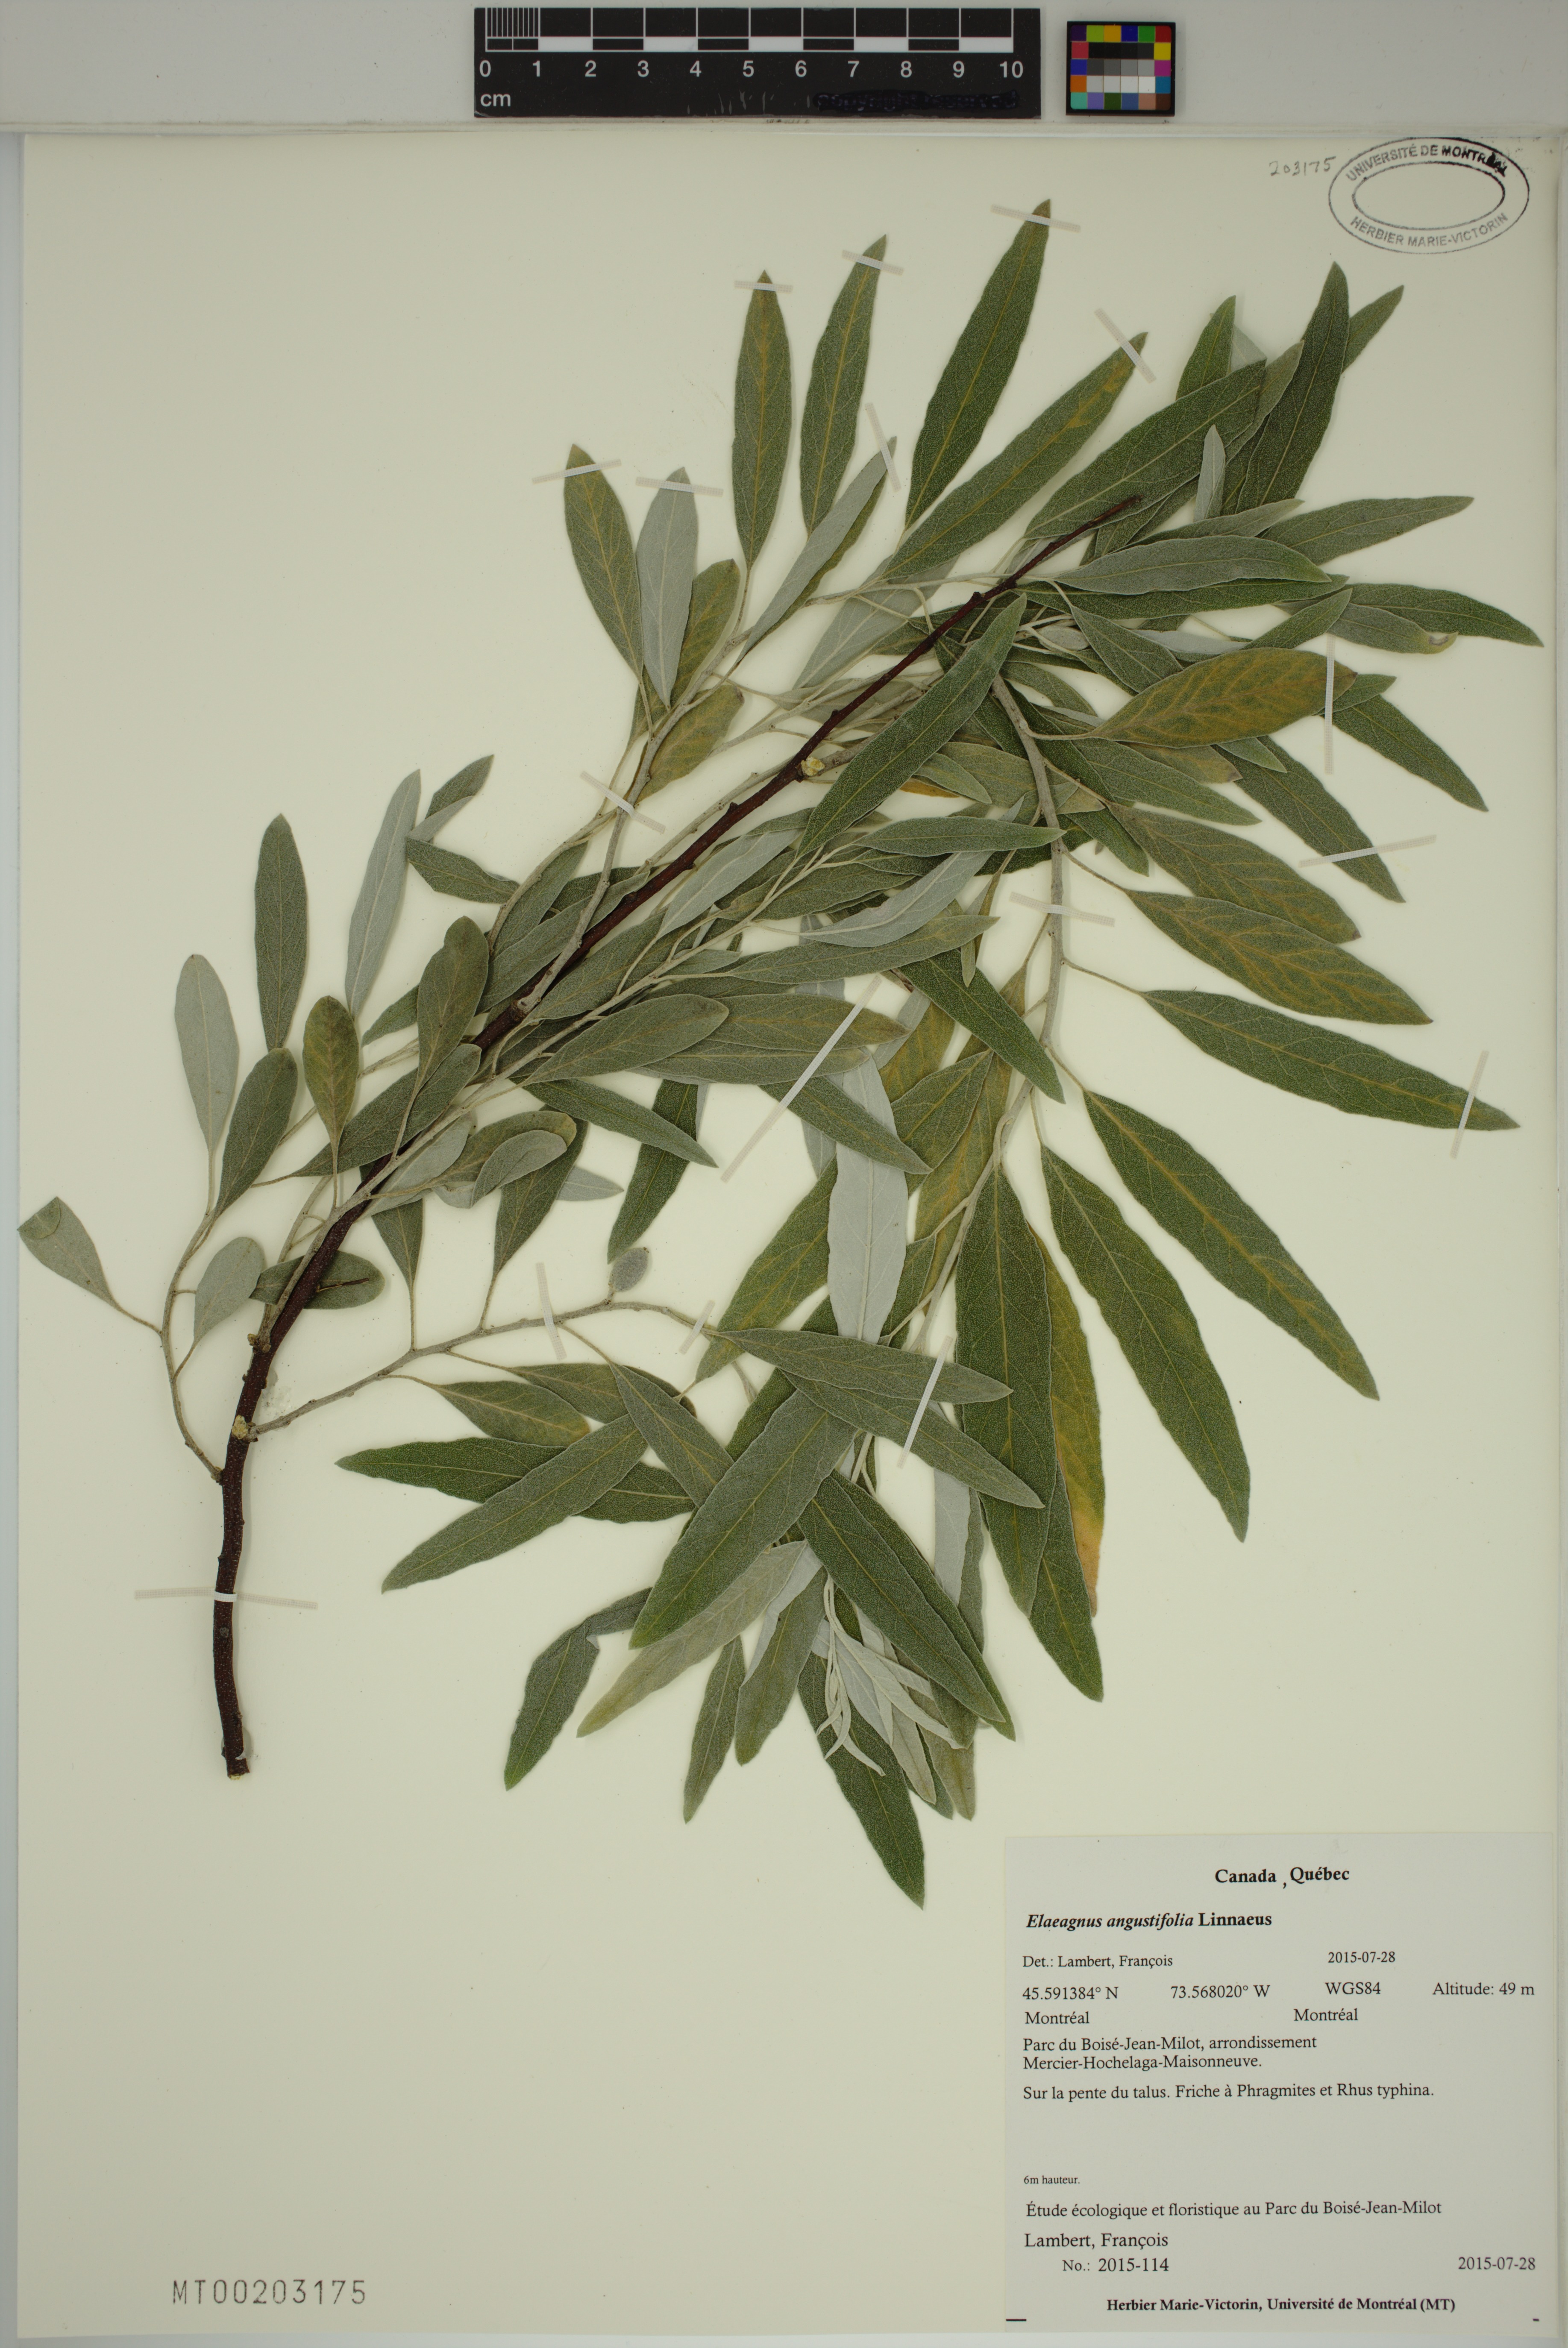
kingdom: Plantae
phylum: Tracheophyta
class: Magnoliopsida
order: Rosales
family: Elaeagnaceae
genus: Elaeagnus
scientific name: Elaeagnus angustifolia
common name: Russian olive
